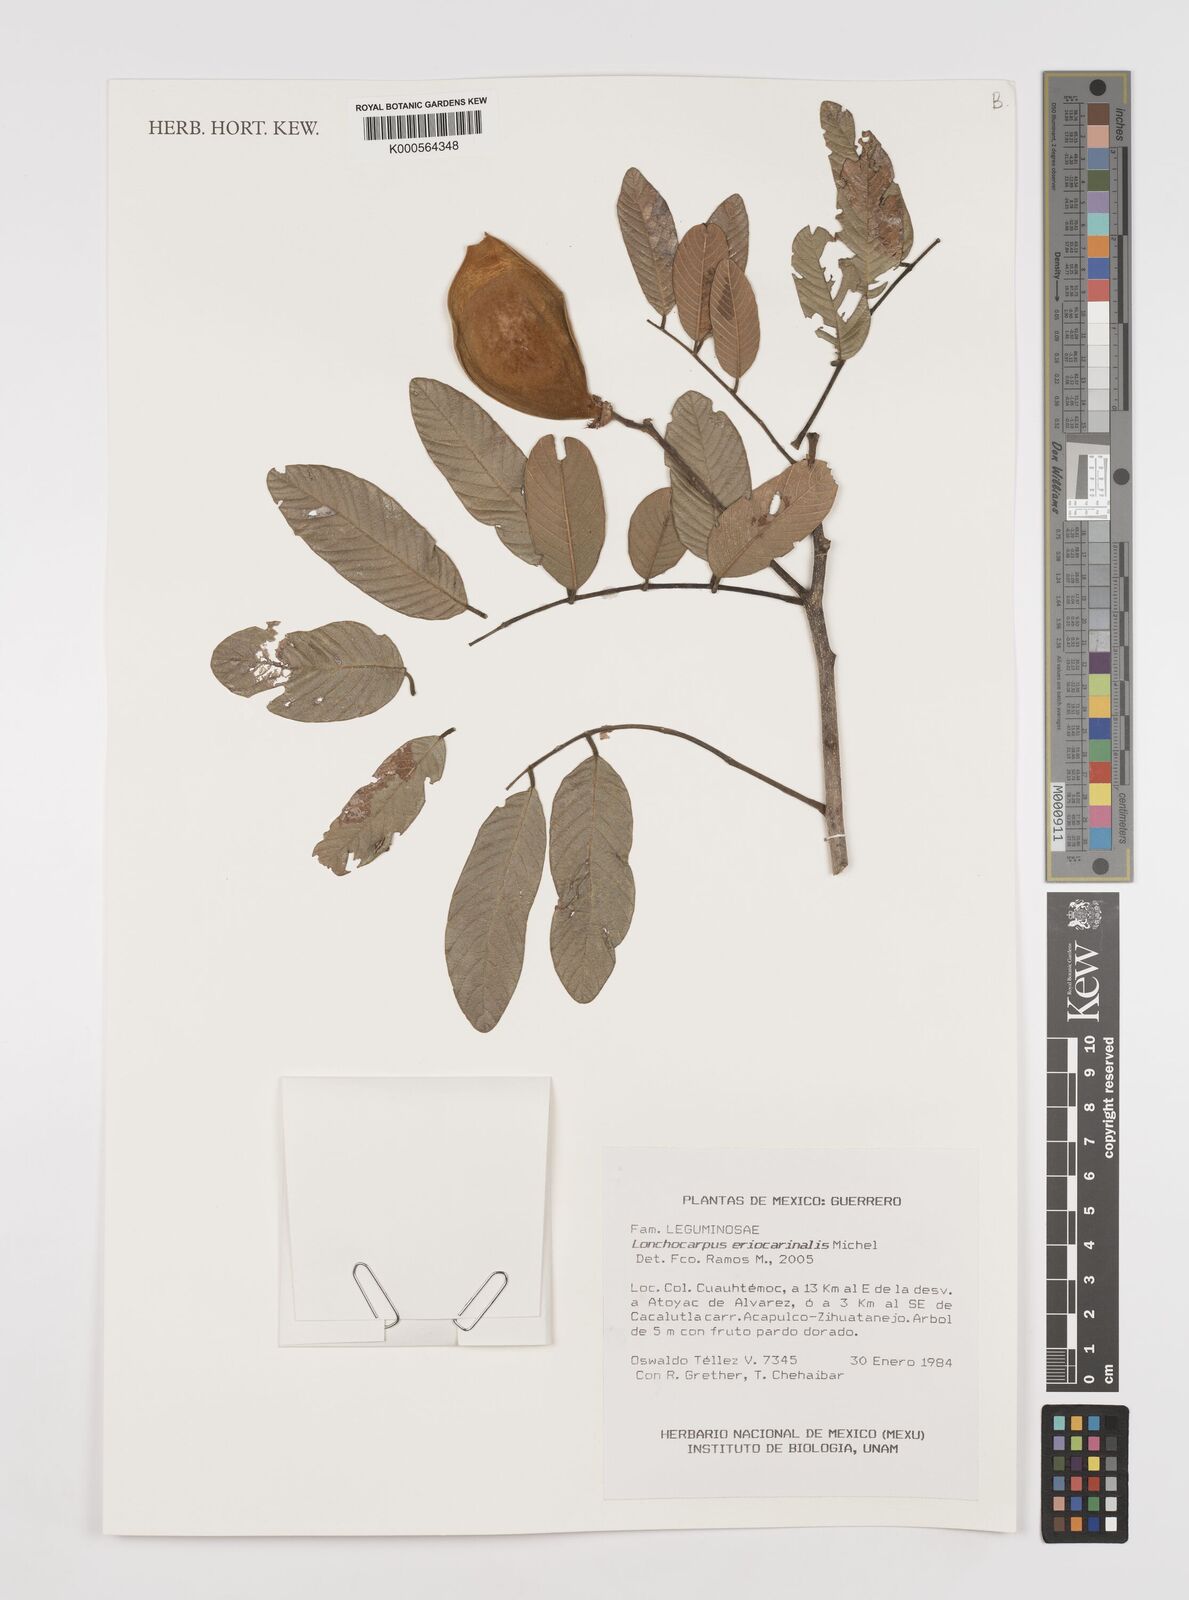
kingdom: Plantae
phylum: Tracheophyta
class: Magnoliopsida
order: Fabales
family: Fabaceae
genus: Lonchocarpus
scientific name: Lonchocarpus eriocarinalis
